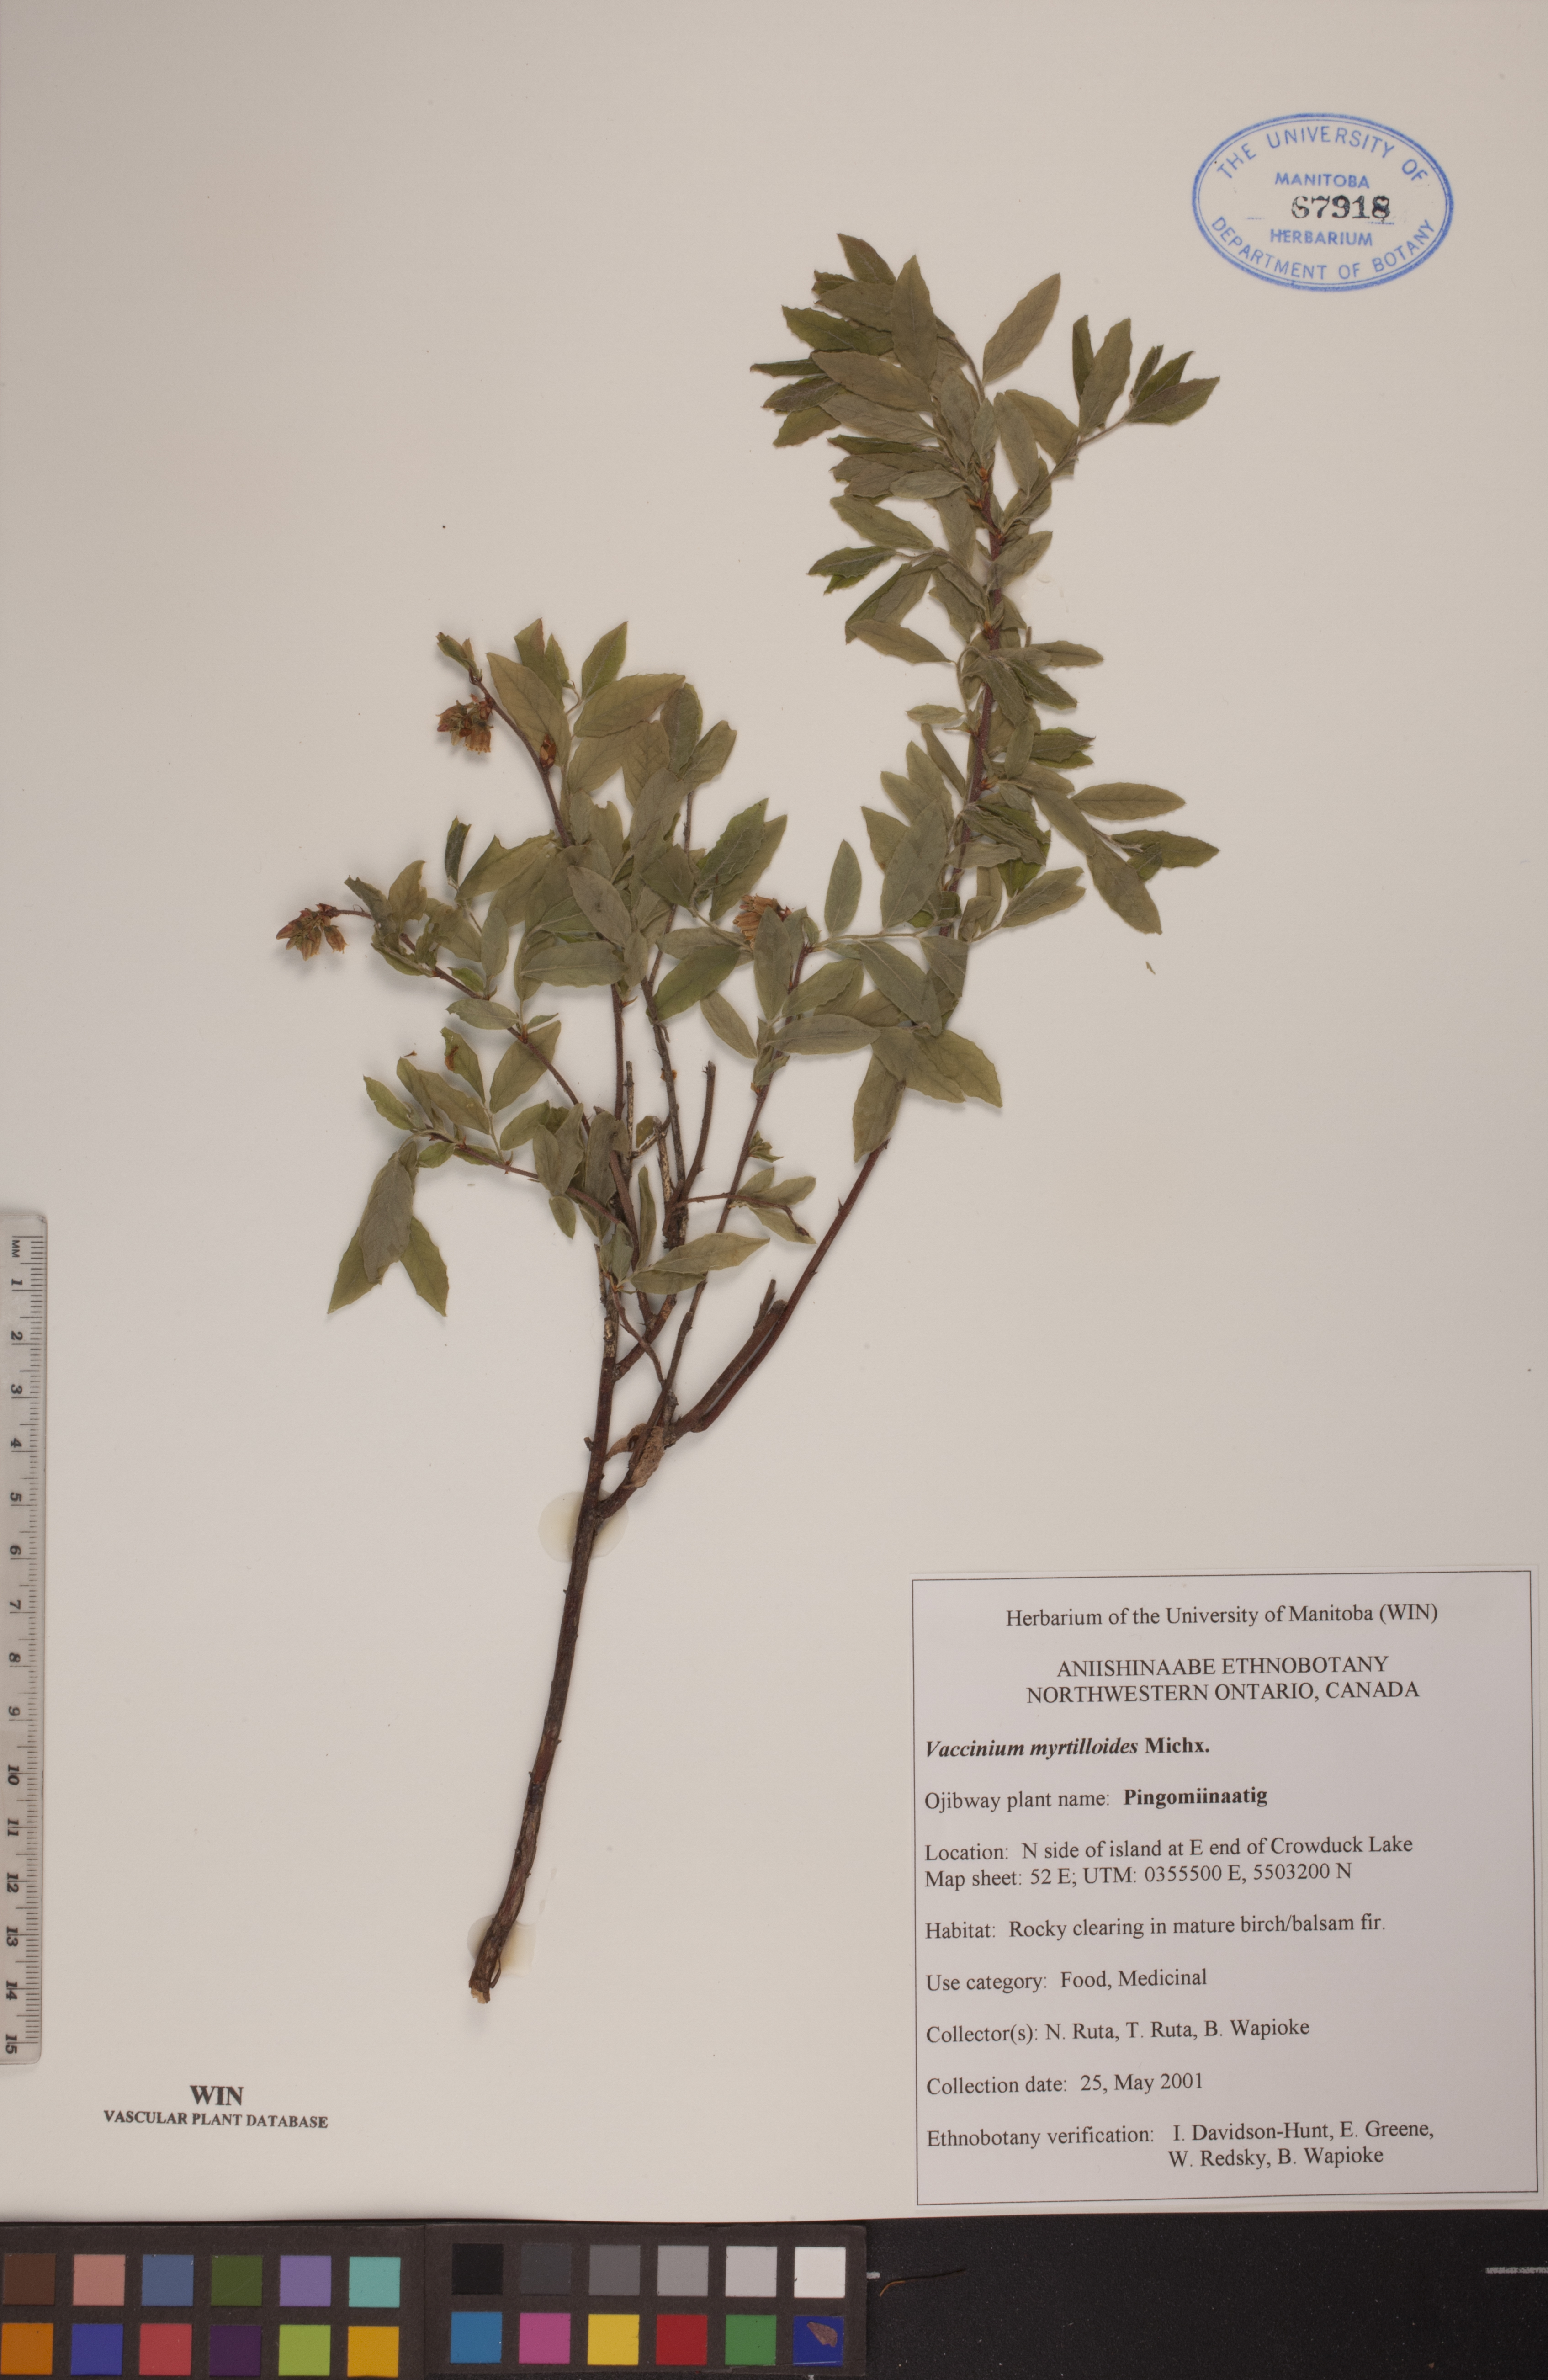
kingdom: Plantae
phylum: Tracheophyta
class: Magnoliopsida
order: Ericales
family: Ericaceae
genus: Vaccinium
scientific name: Vaccinium myrtilloides
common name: Canada blueberry
